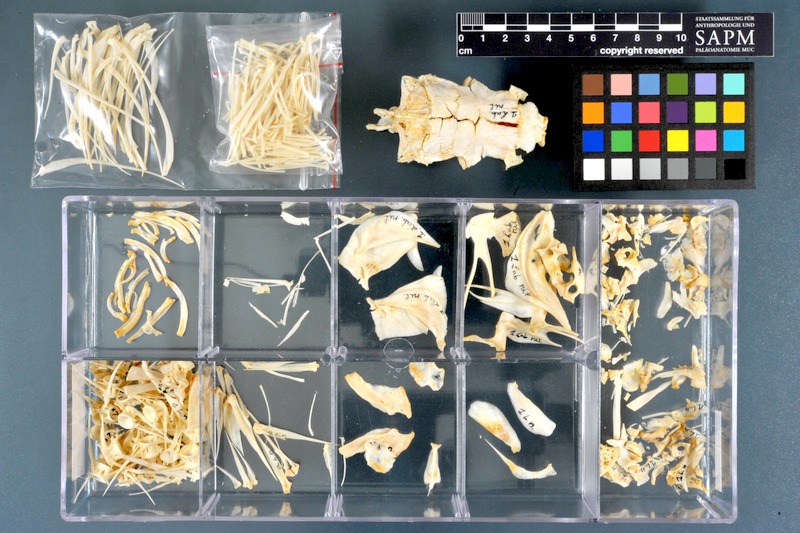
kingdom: Animalia
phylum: Chordata
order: Cypriniformes
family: Cyprinidae
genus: Labeo
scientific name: Labeo niloticus
